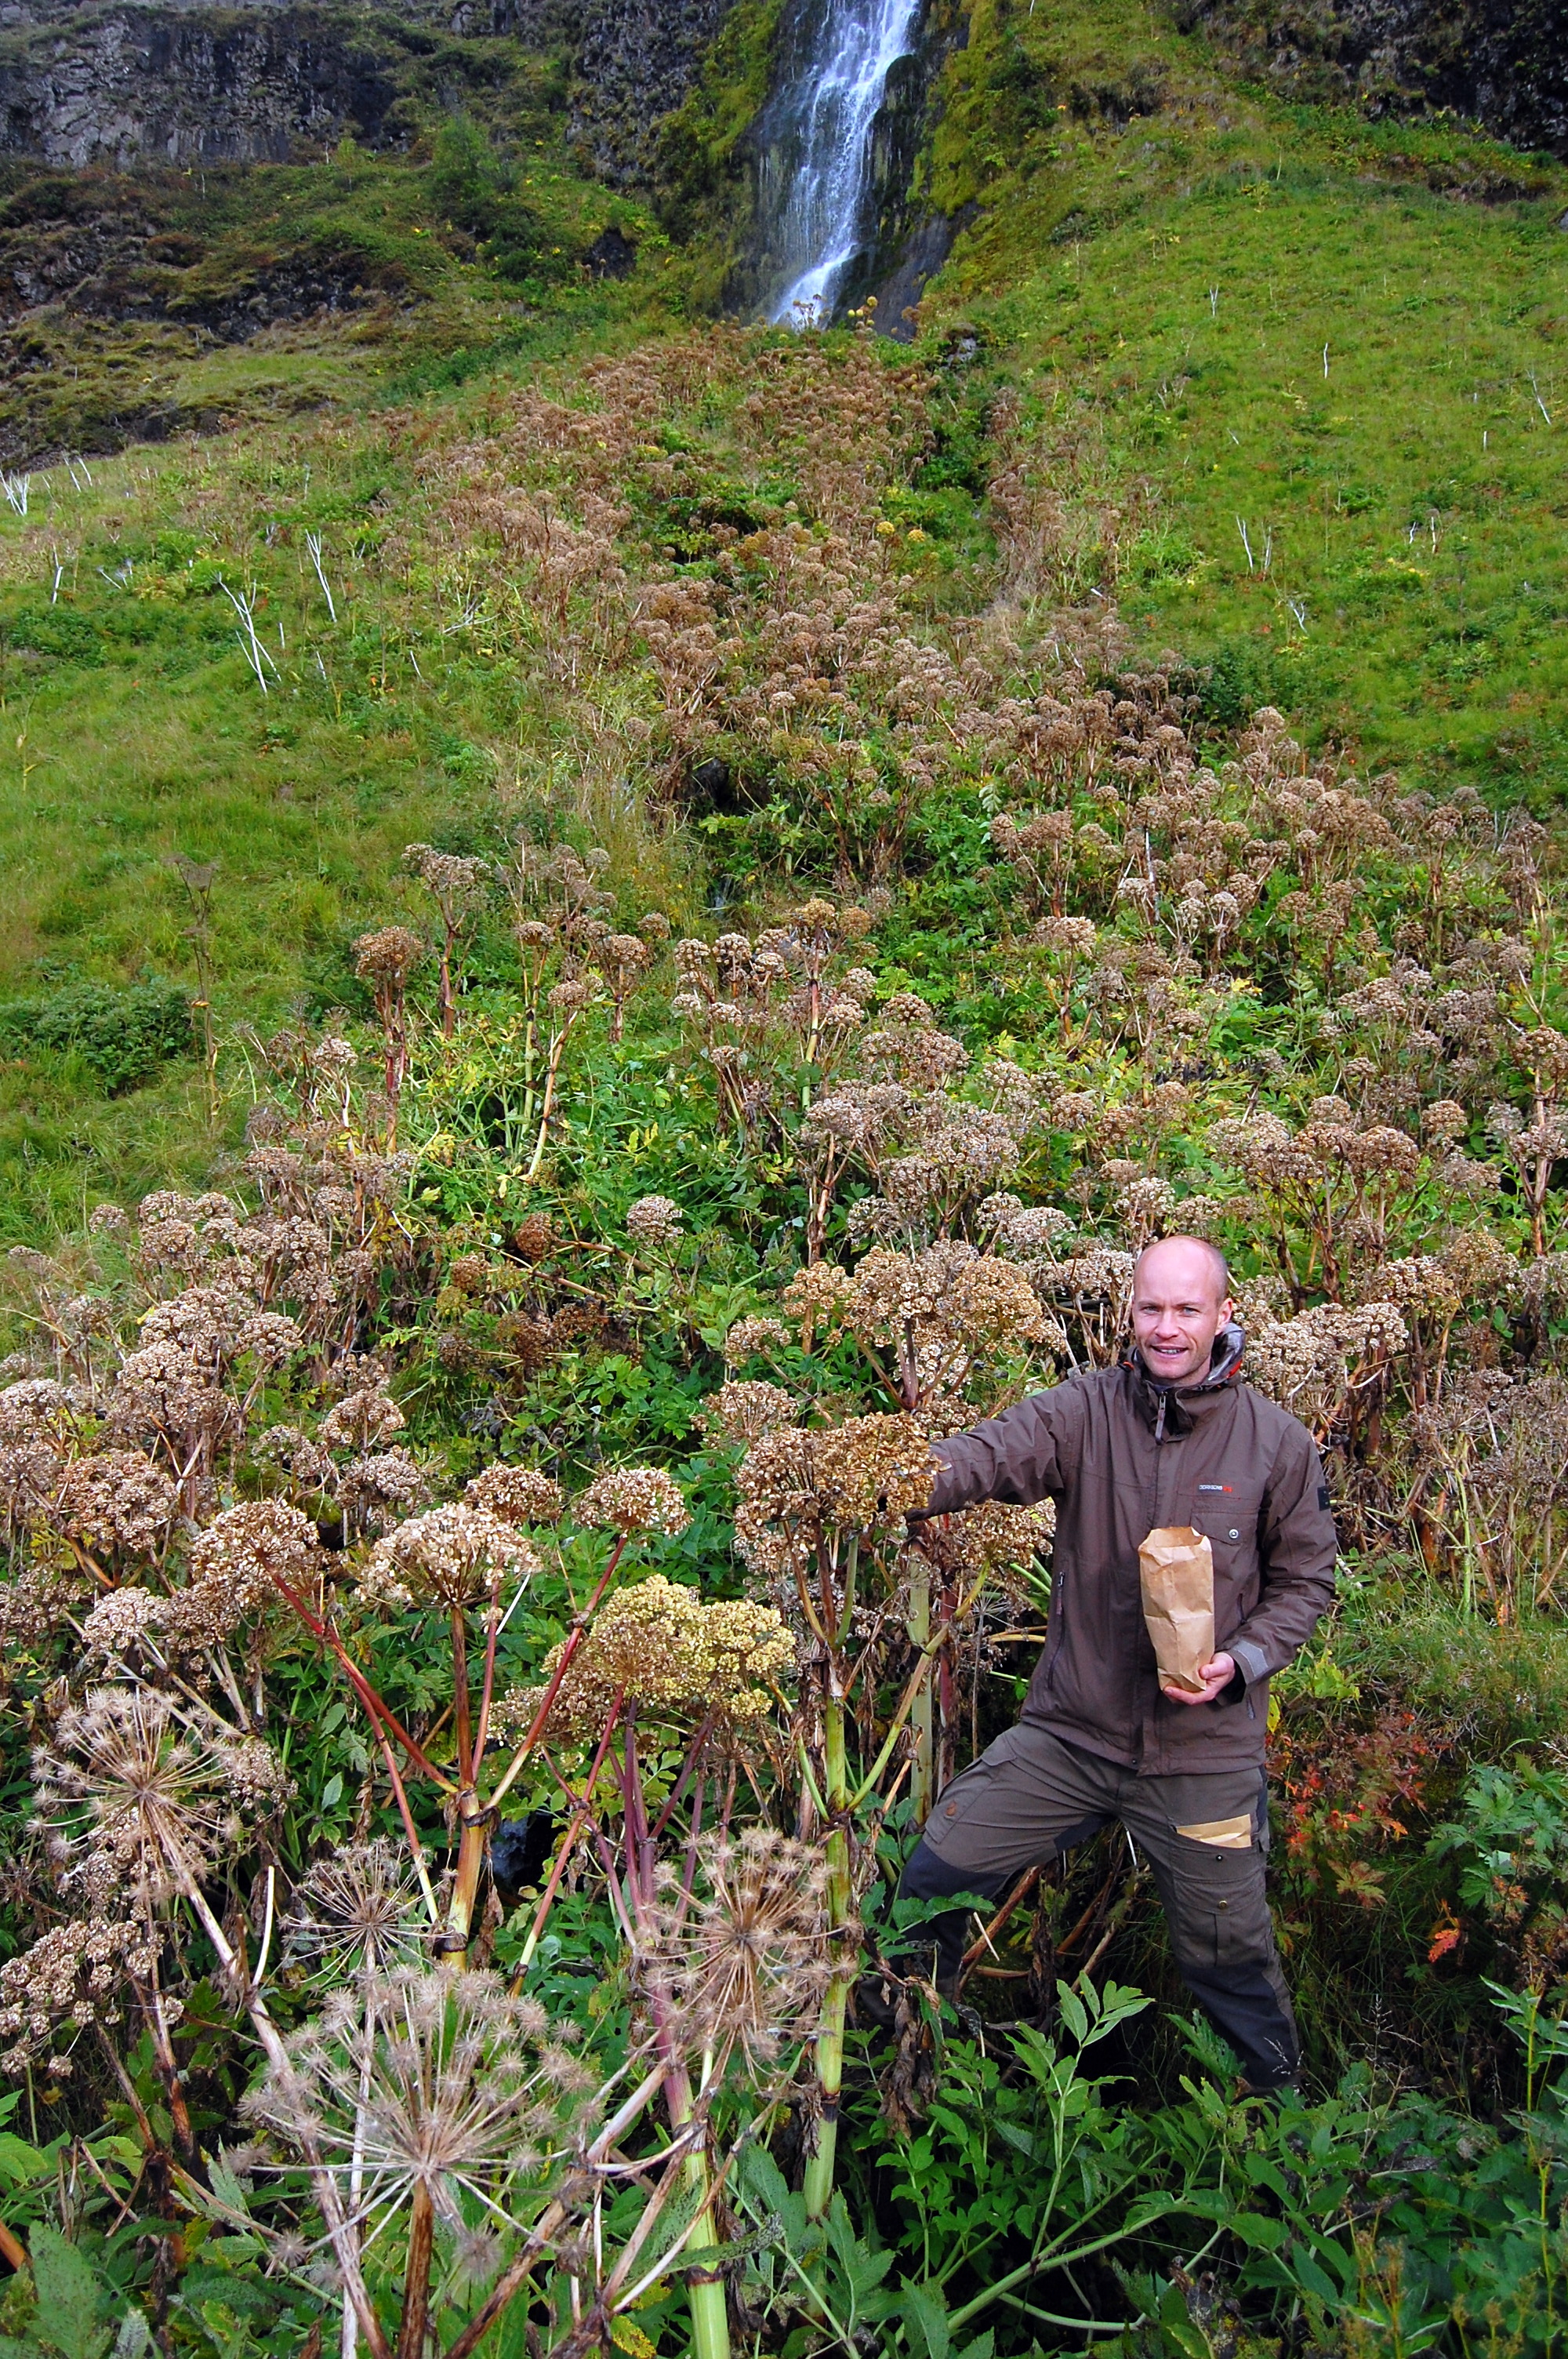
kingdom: Plantae
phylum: Tracheophyta
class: Magnoliopsida
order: Apiales
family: Apiaceae
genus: Angelica
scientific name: Angelica archangelica
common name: Garden angelica
